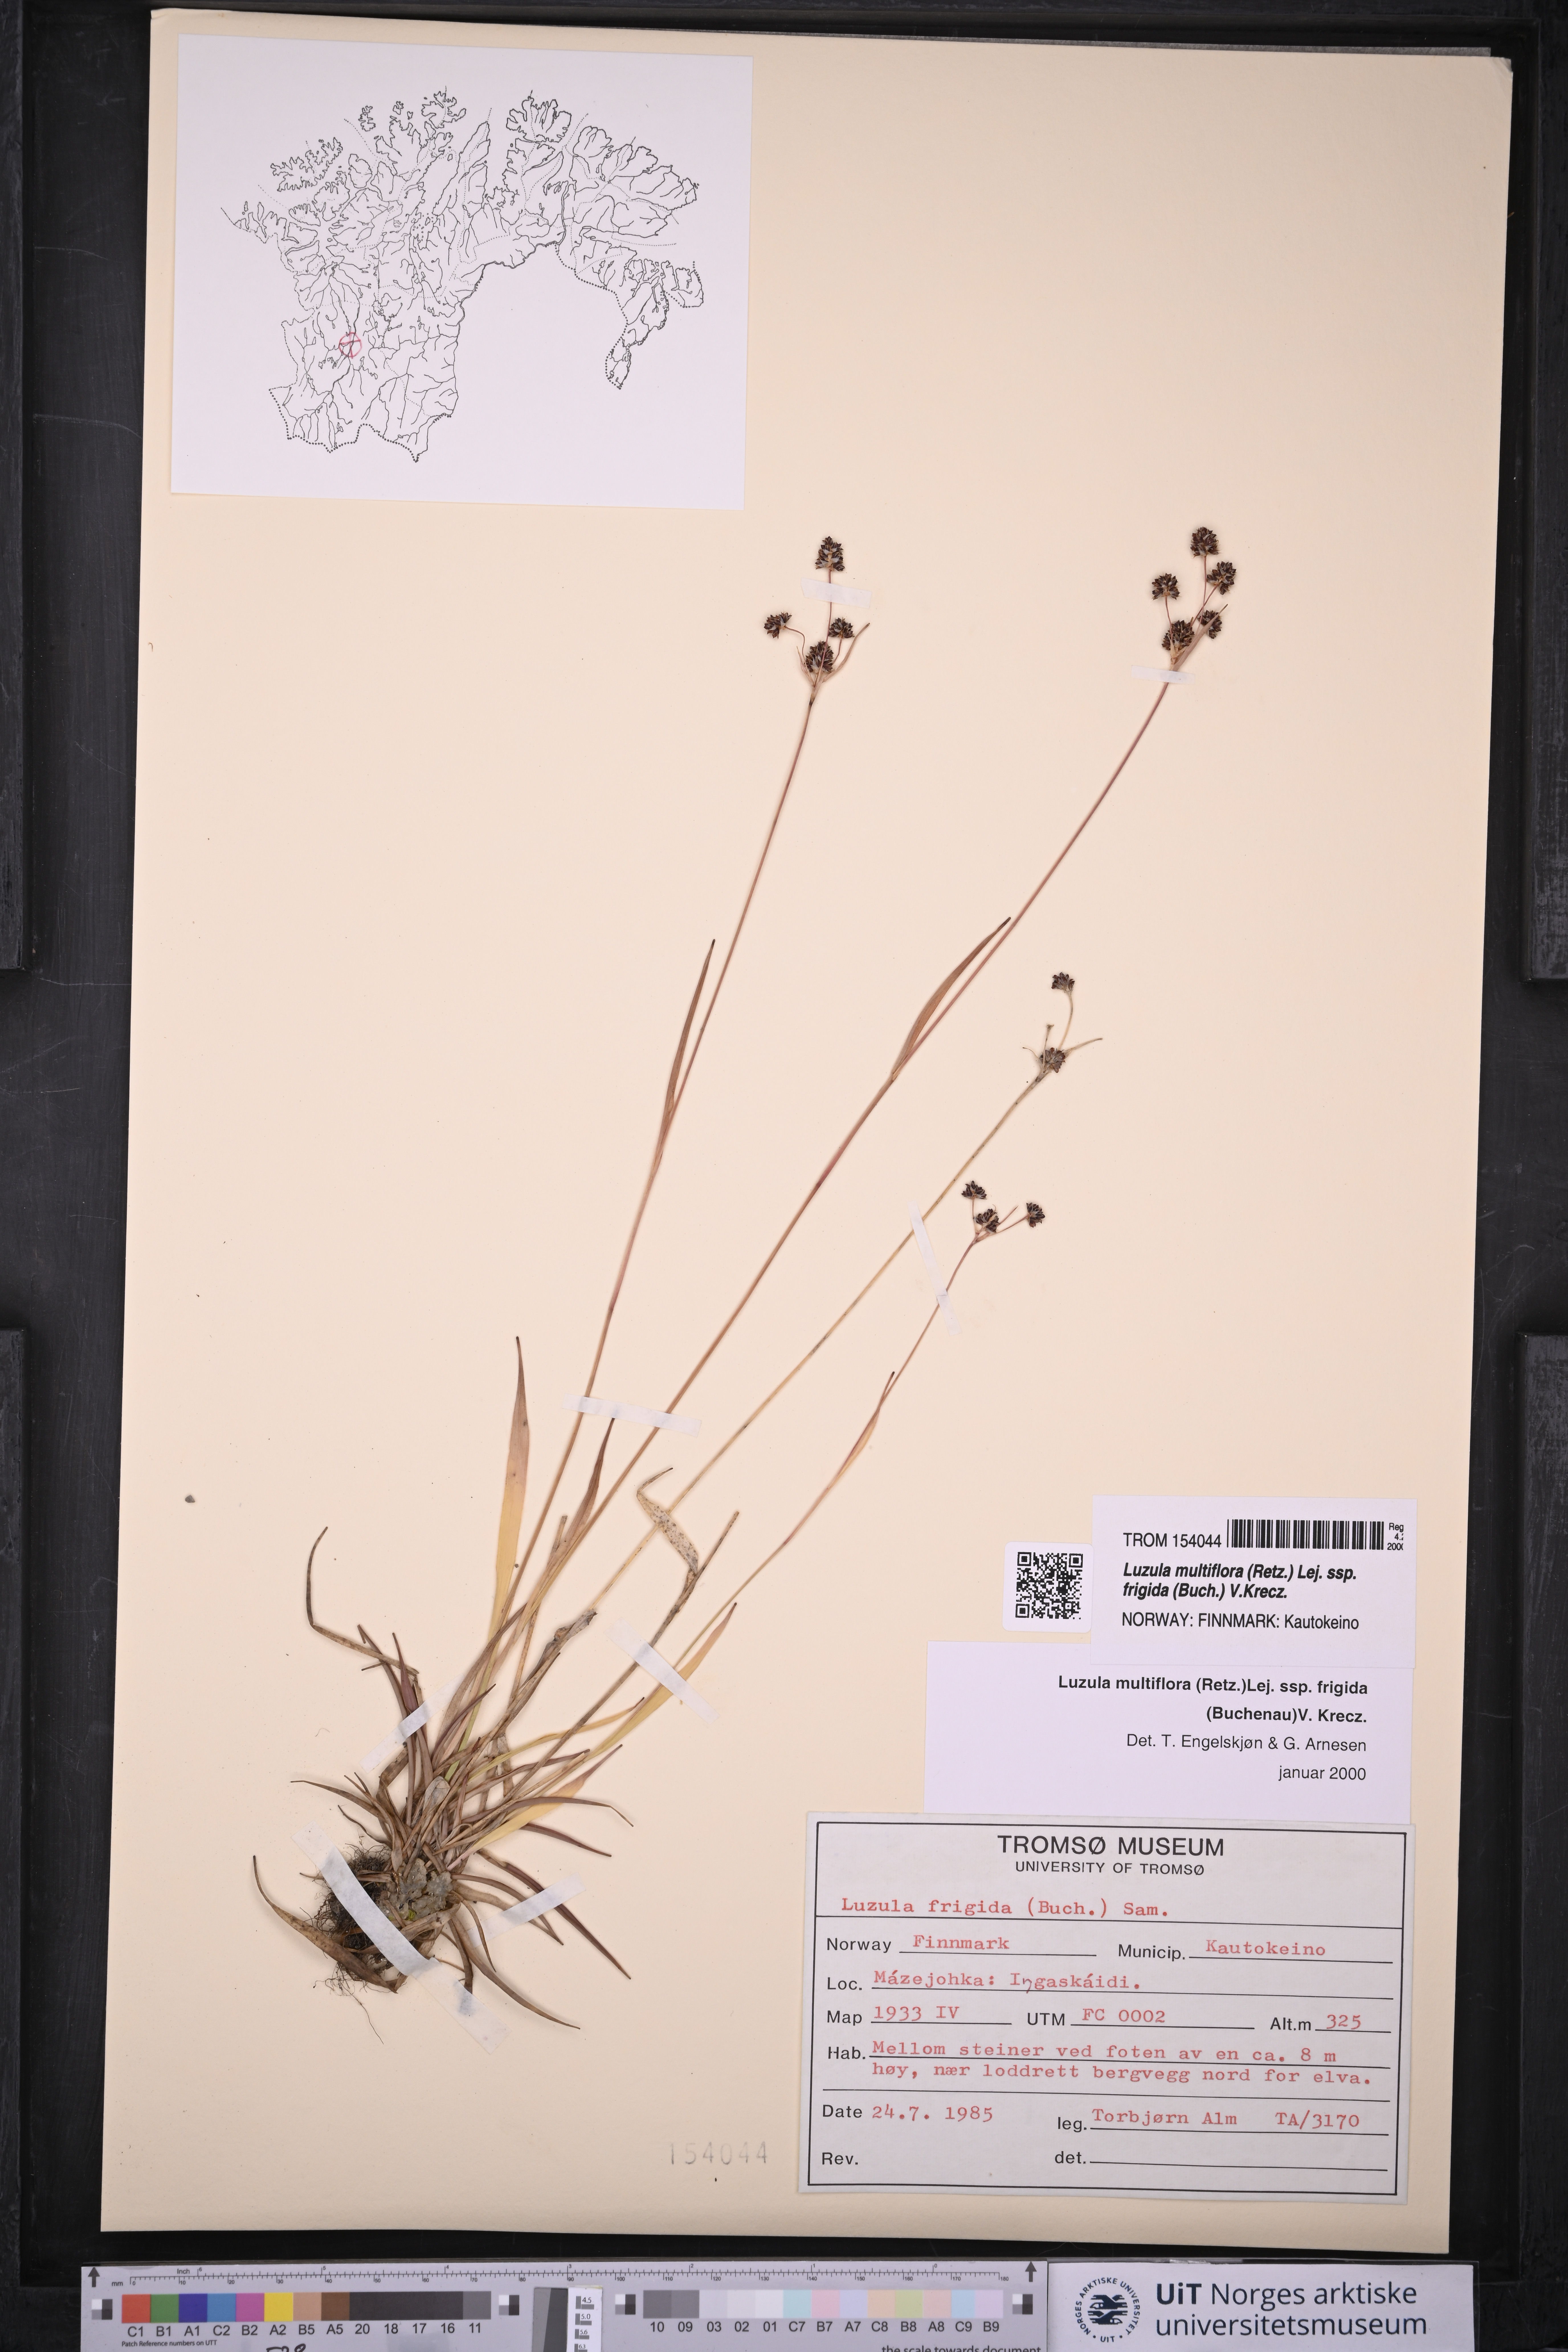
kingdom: Plantae
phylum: Tracheophyta
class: Liliopsida
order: Poales
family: Juncaceae
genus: Luzula
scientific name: Luzula multiflora
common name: Heath wood-rush
